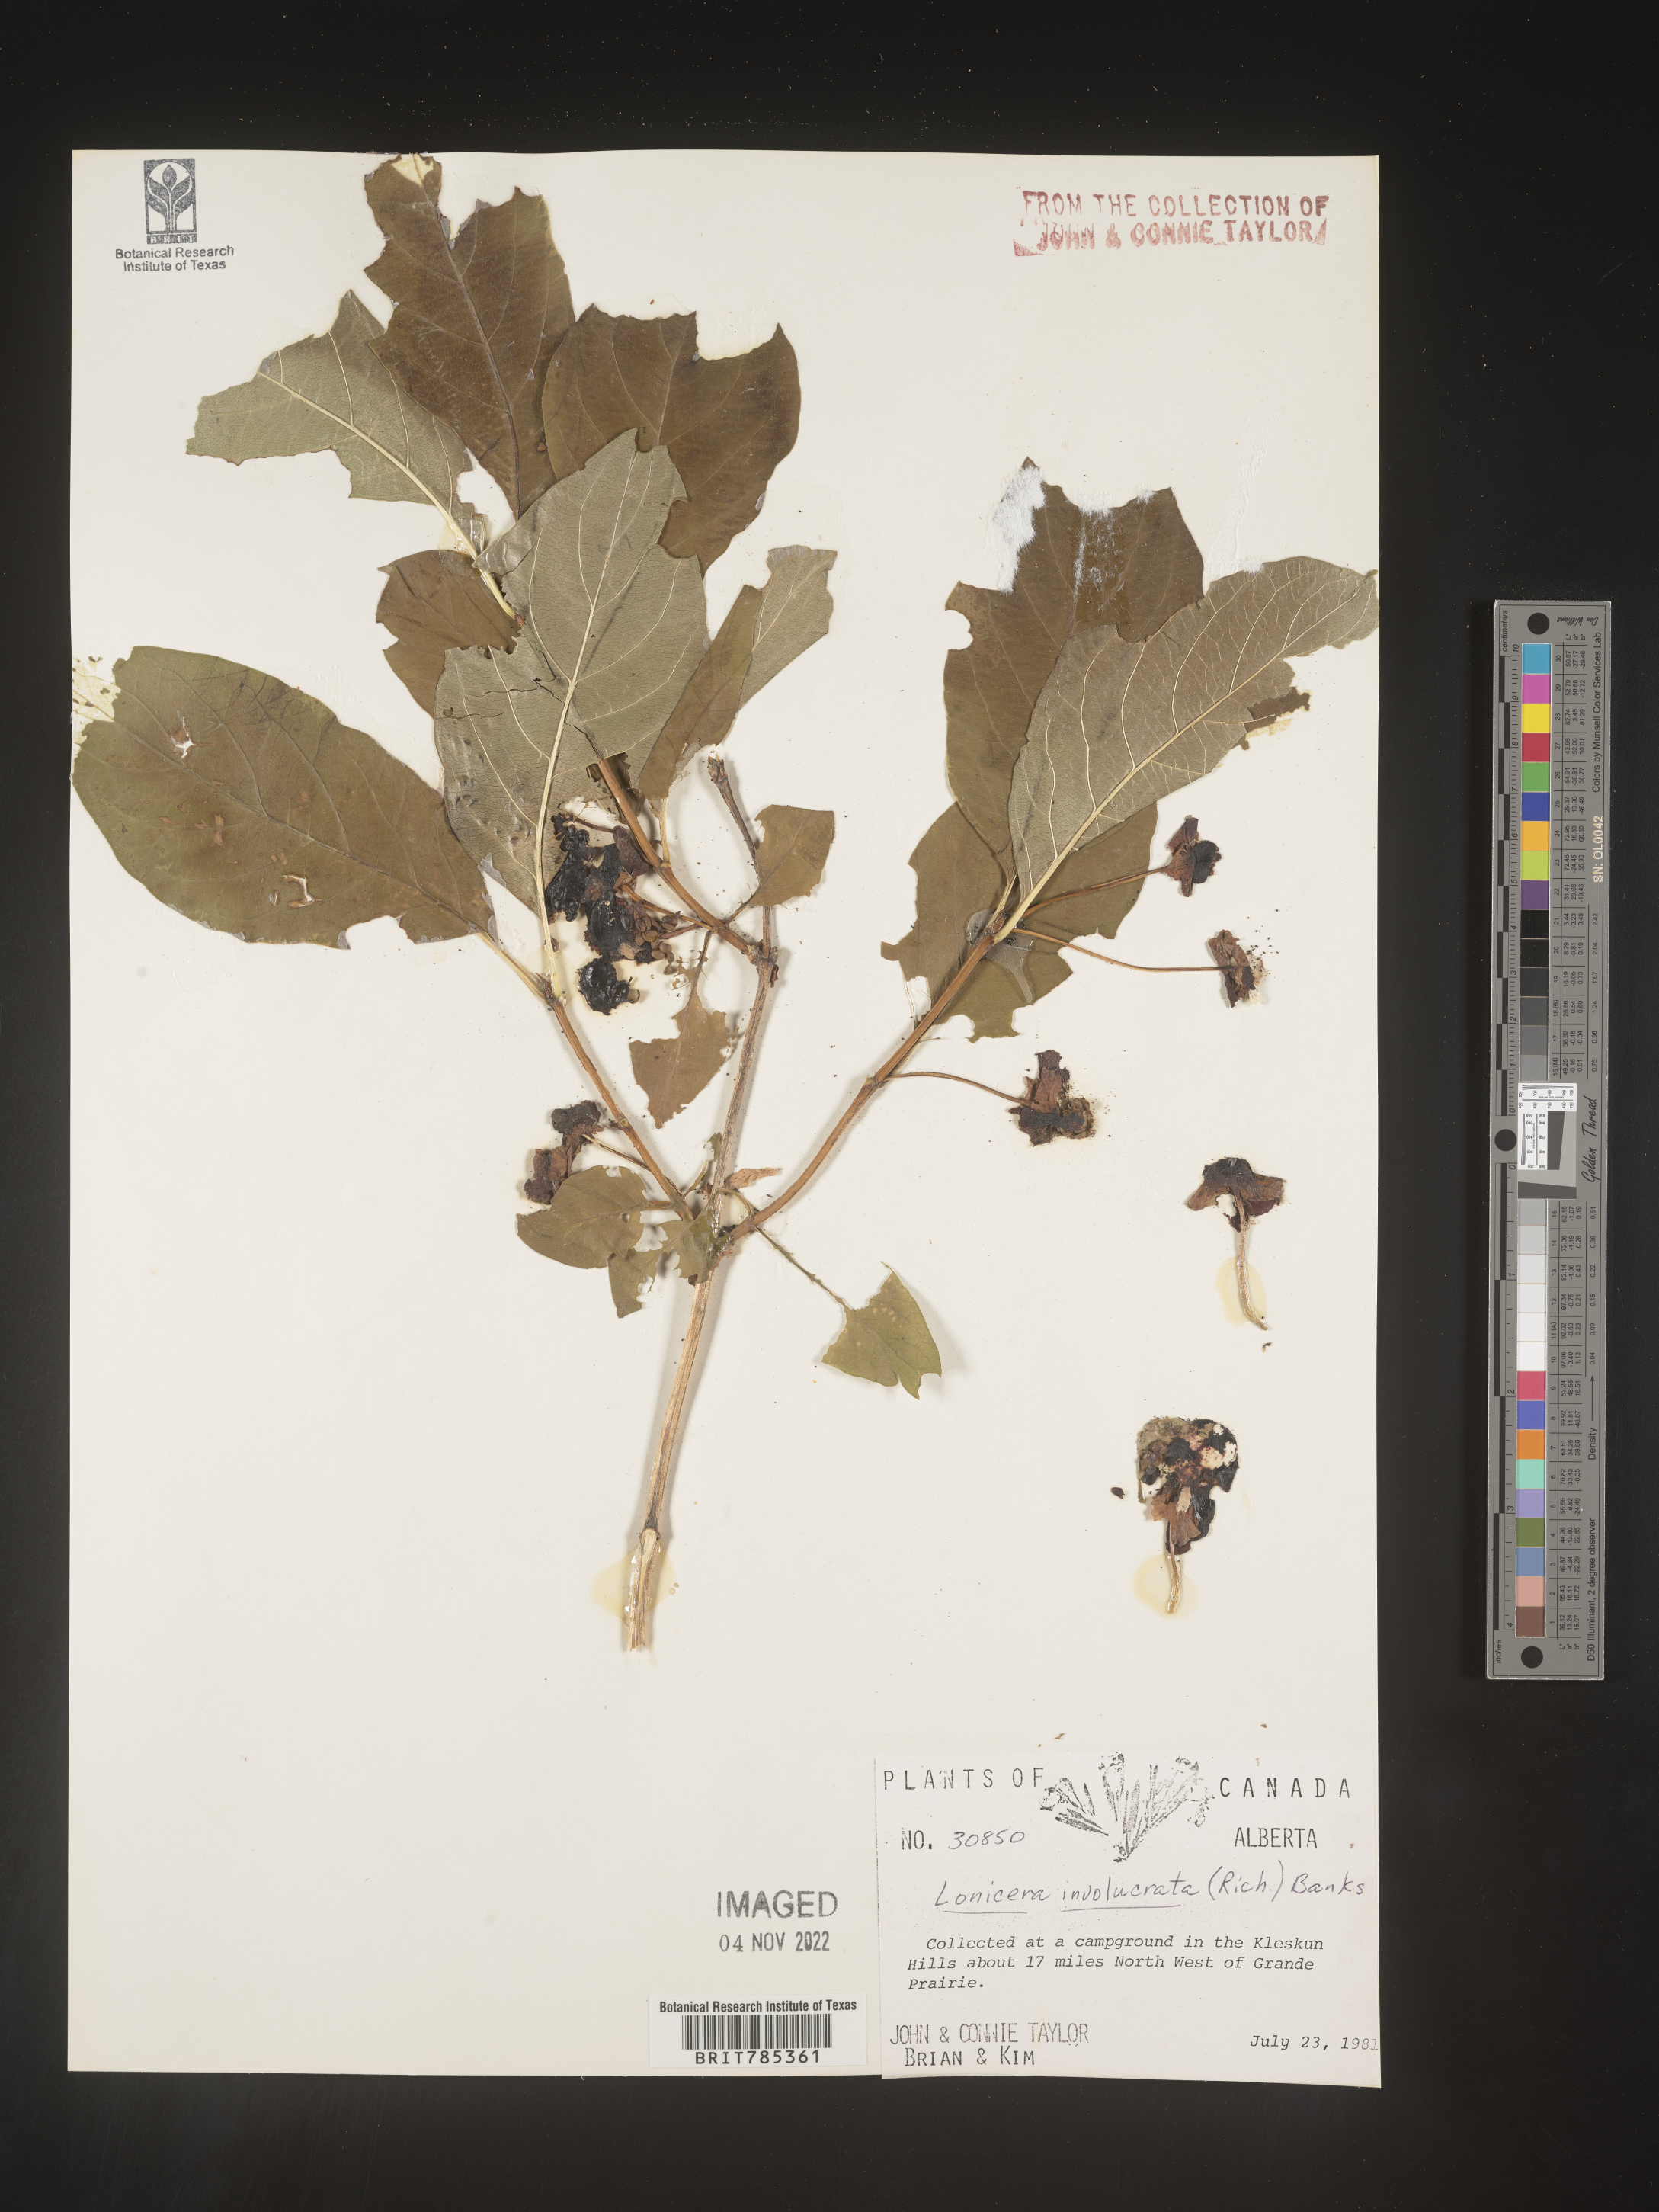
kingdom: Plantae
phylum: Tracheophyta
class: Magnoliopsida
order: Dipsacales
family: Caprifoliaceae
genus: Lonicera
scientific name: Lonicera involucrata
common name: Californian honeysuckle
